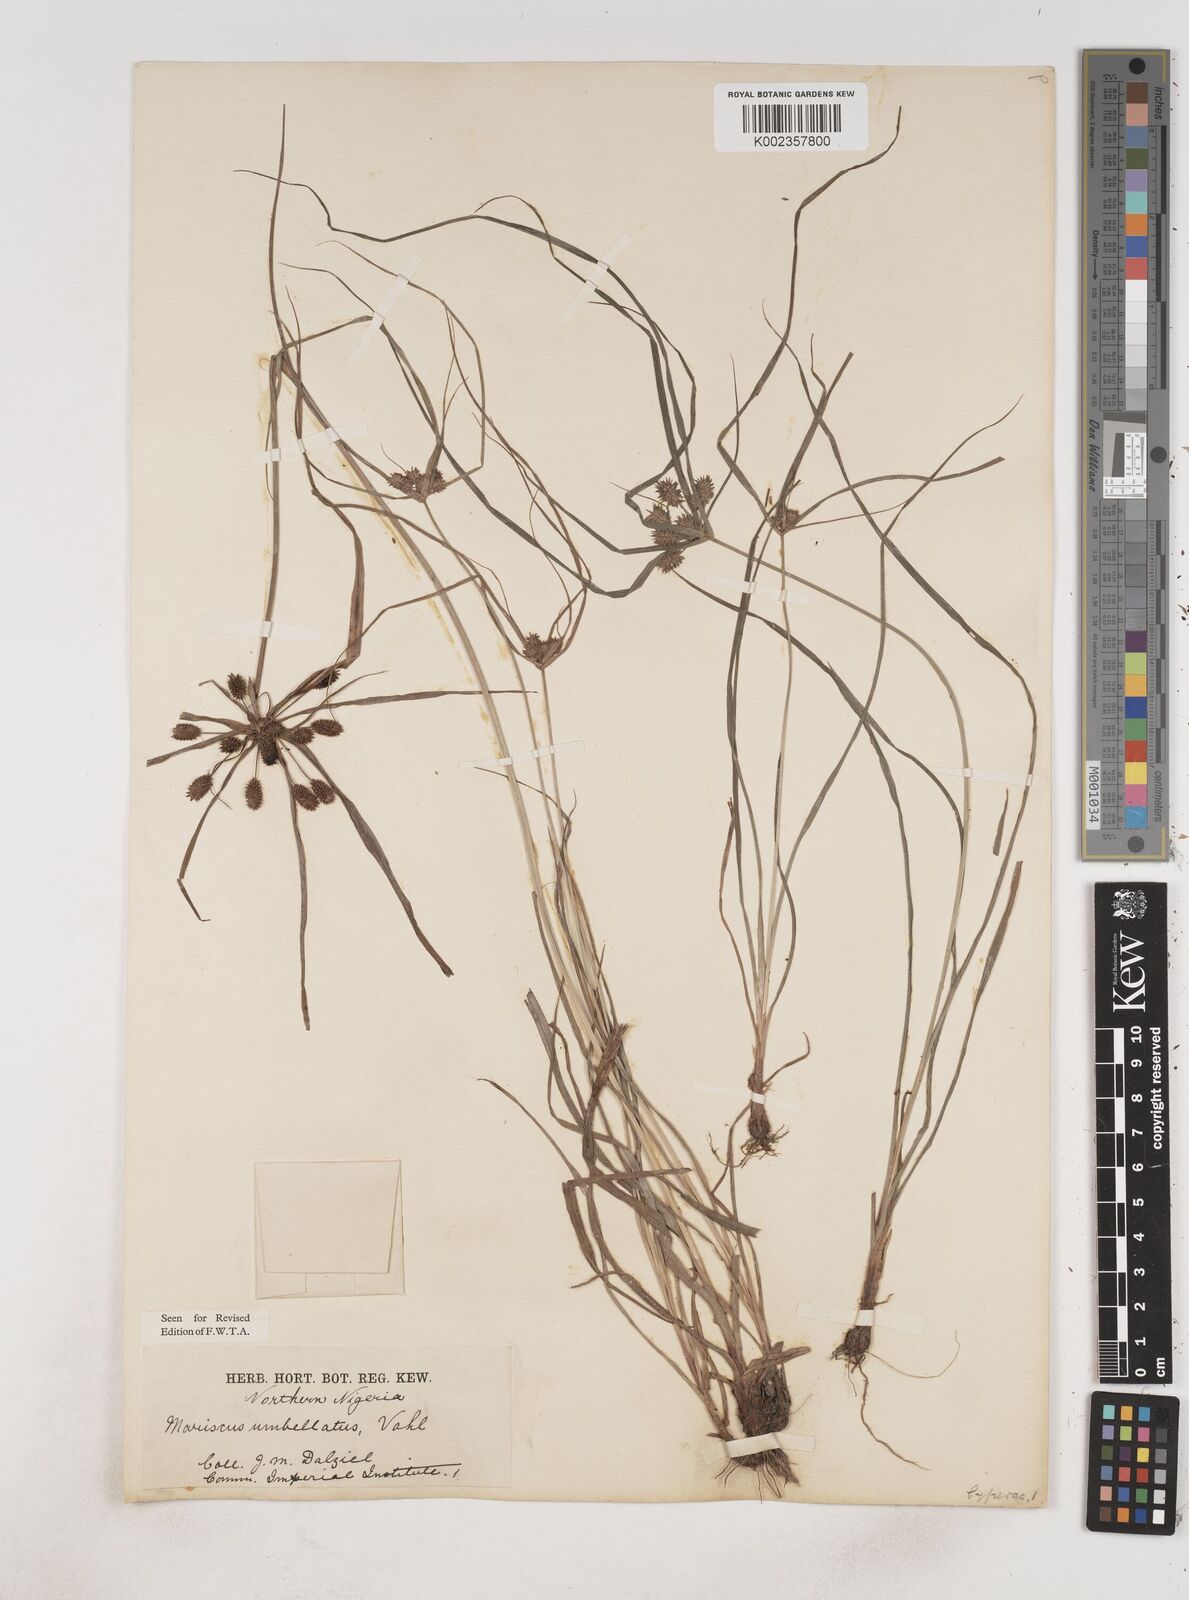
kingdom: Plantae
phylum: Tracheophyta
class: Liliopsida
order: Poales
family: Cyperaceae
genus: Cyperus
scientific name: Cyperus sublimis
